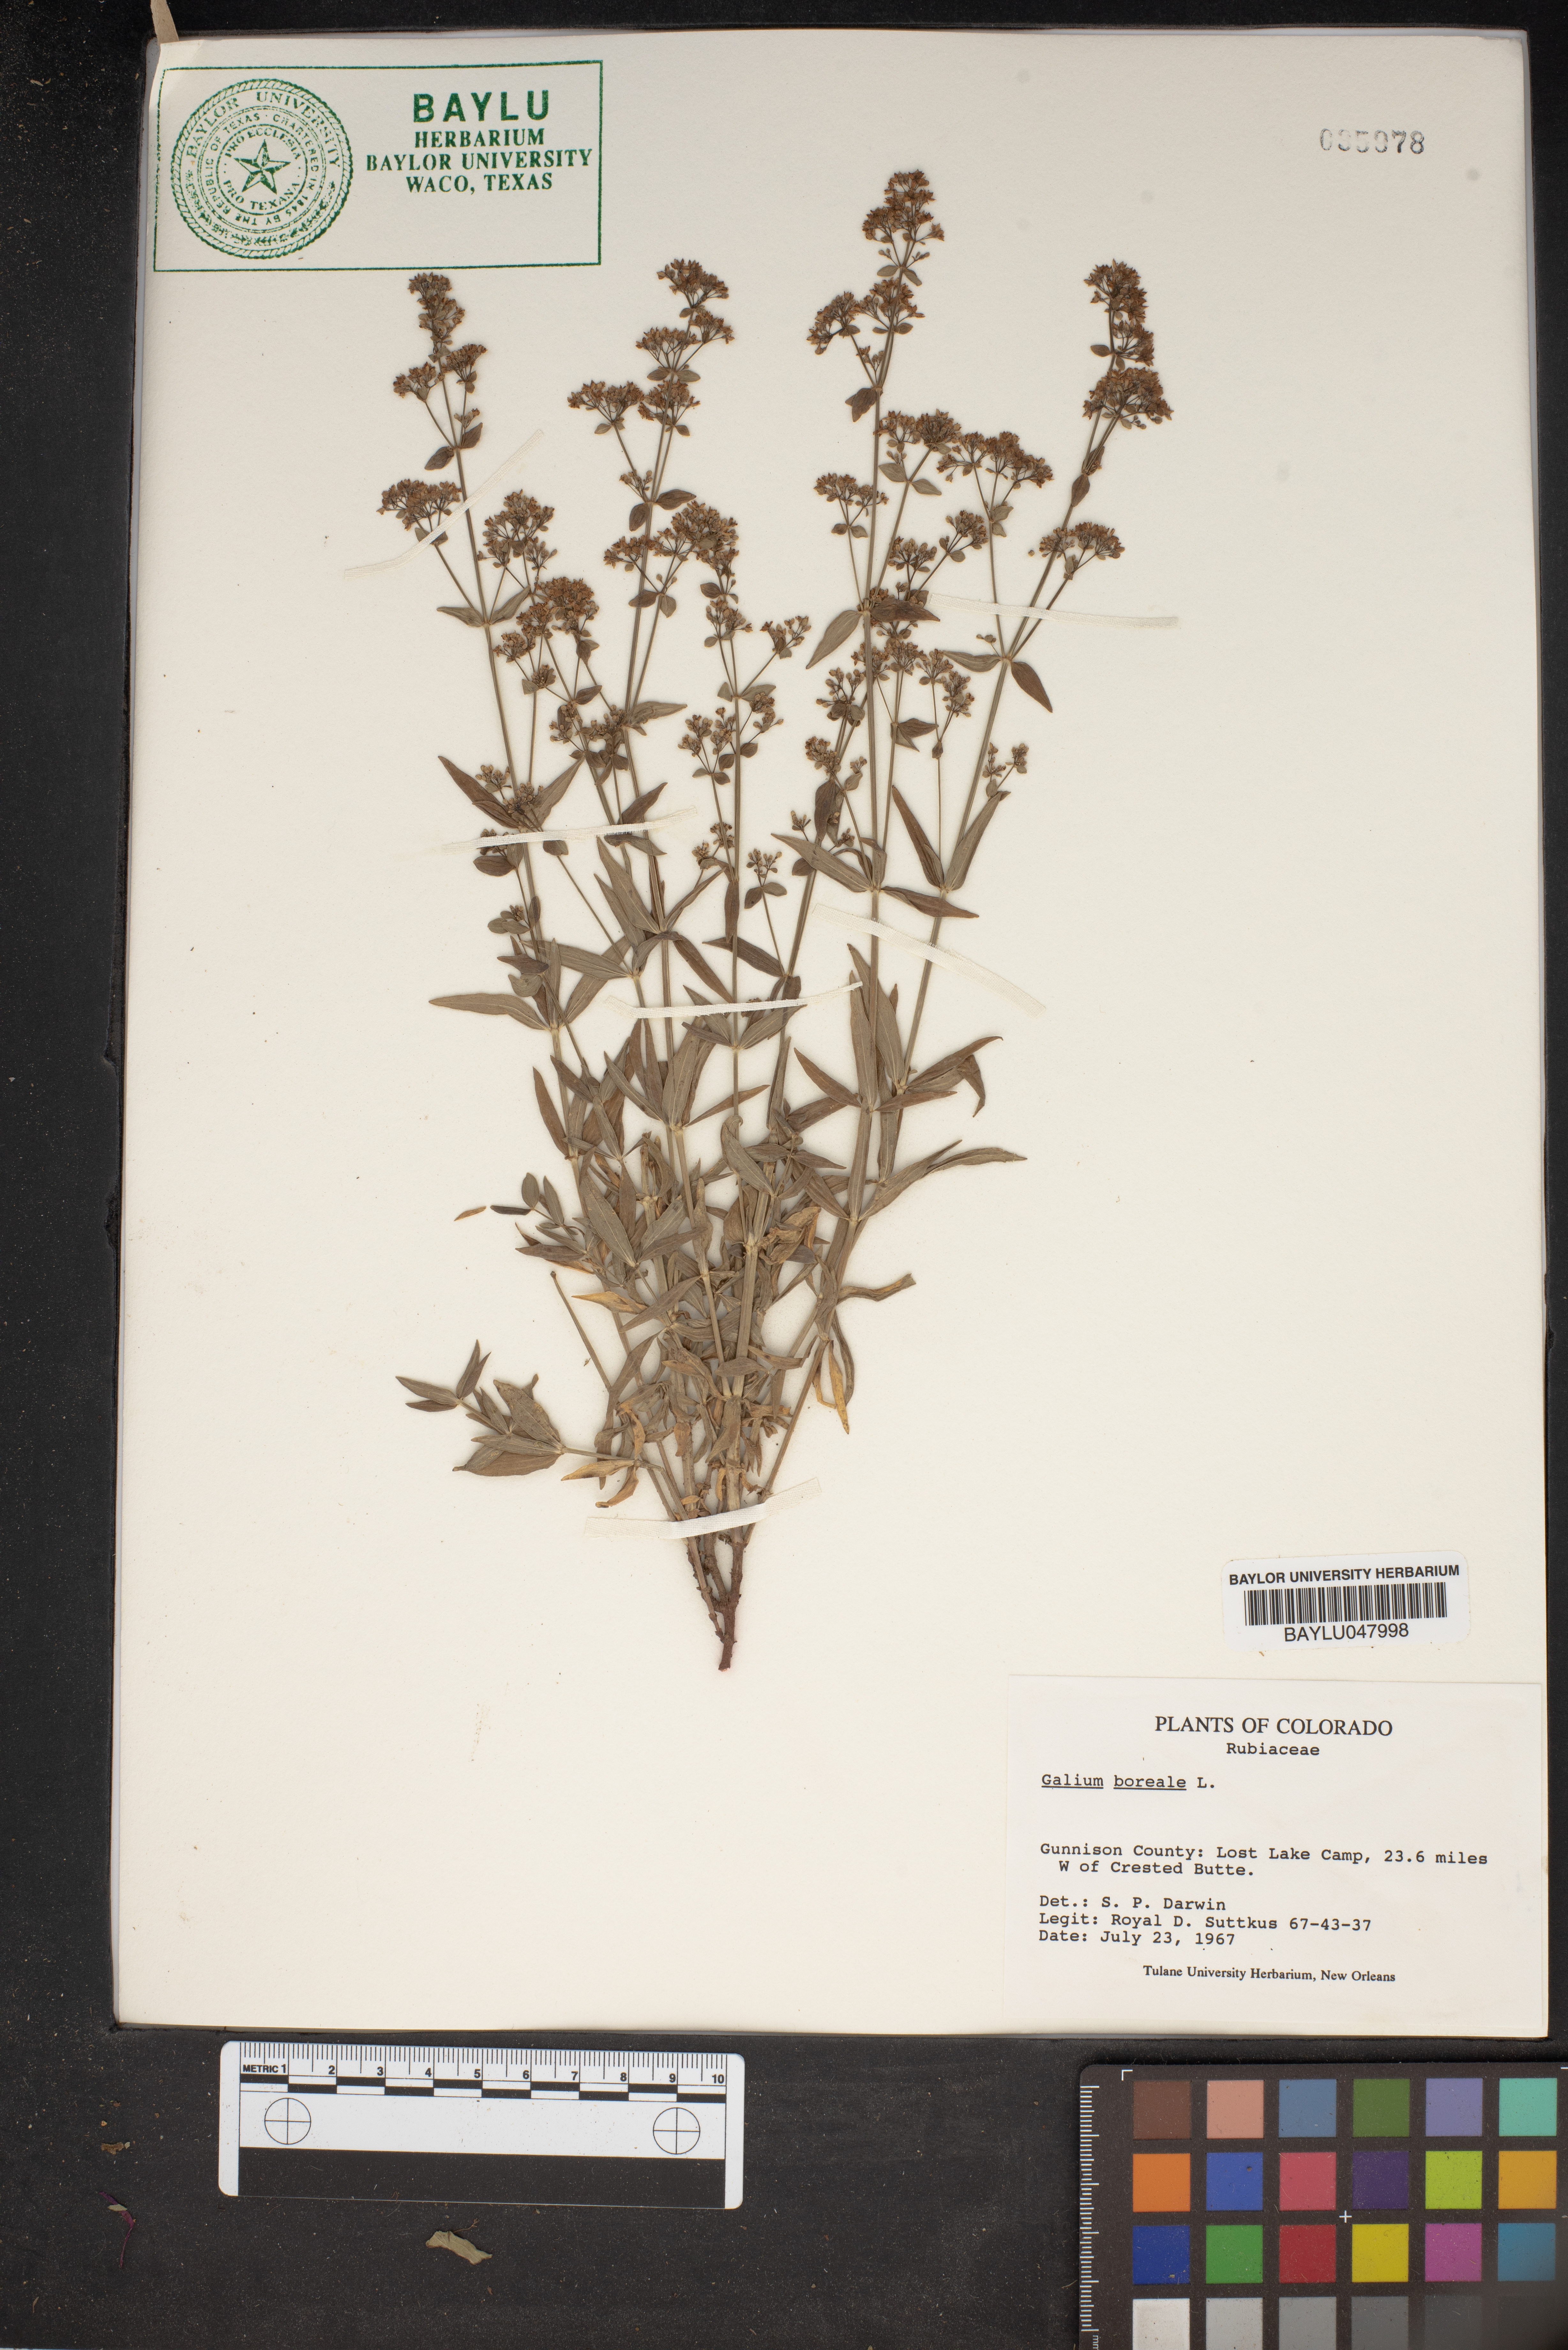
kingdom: Plantae
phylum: Tracheophyta
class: Magnoliopsida
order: Gentianales
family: Rubiaceae
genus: Galium
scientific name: Galium boreale
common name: Northern bedstraw
